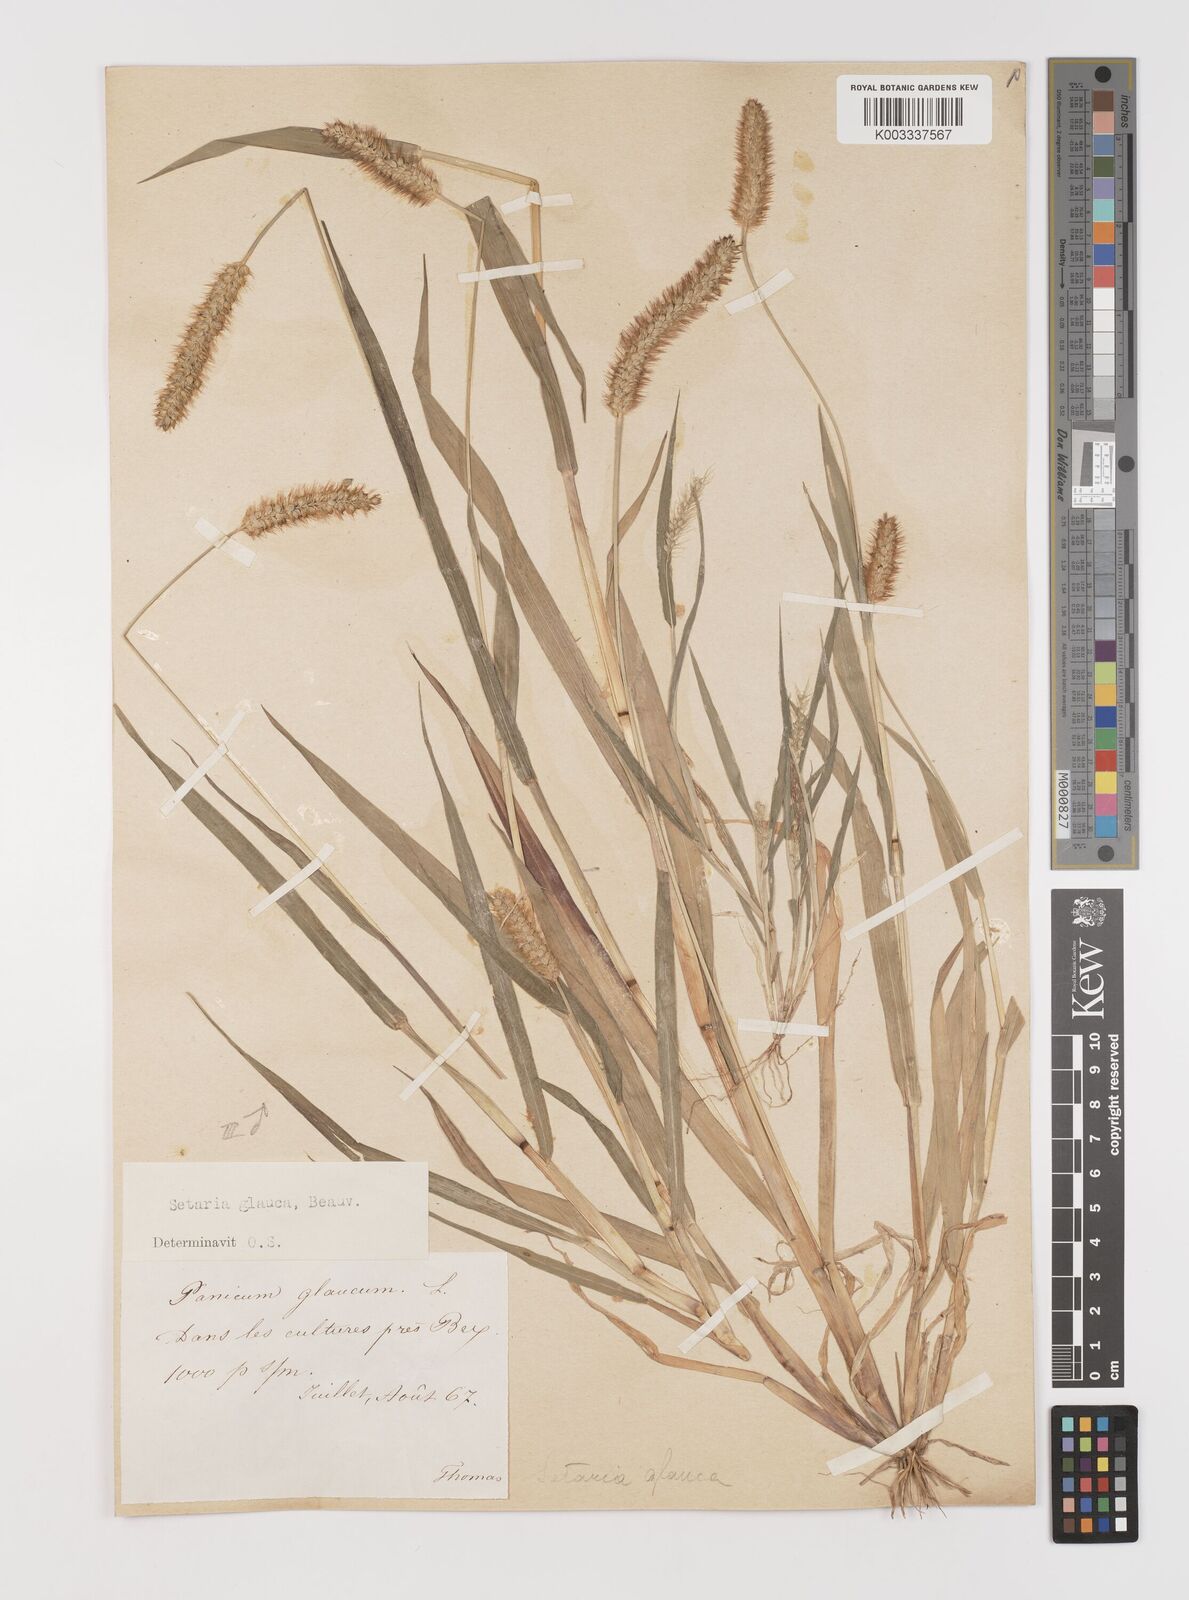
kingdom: Plantae
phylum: Tracheophyta
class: Liliopsida
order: Poales
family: Poaceae
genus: Setaria
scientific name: Setaria pumila
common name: Yellow bristle-grass
